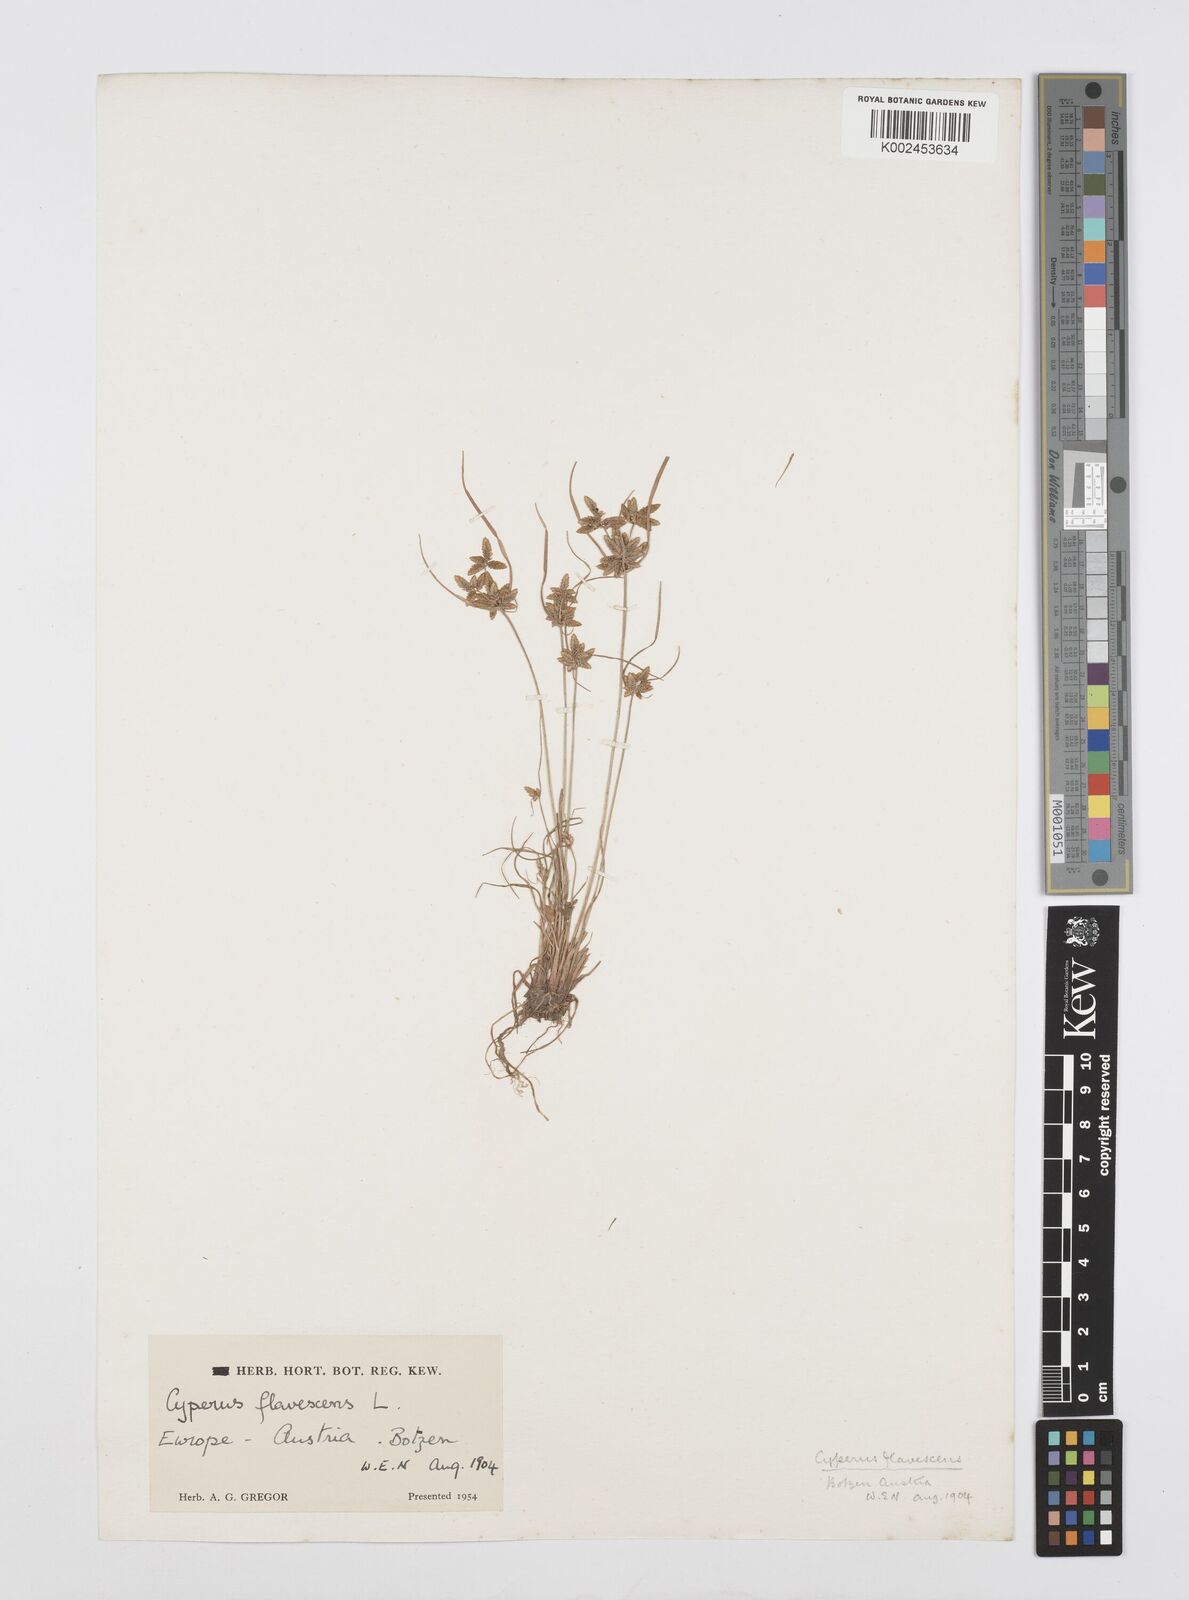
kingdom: Plantae
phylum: Tracheophyta
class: Liliopsida
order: Poales
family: Cyperaceae
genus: Cyperus
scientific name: Cyperus flavescens
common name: Yellow galingale
